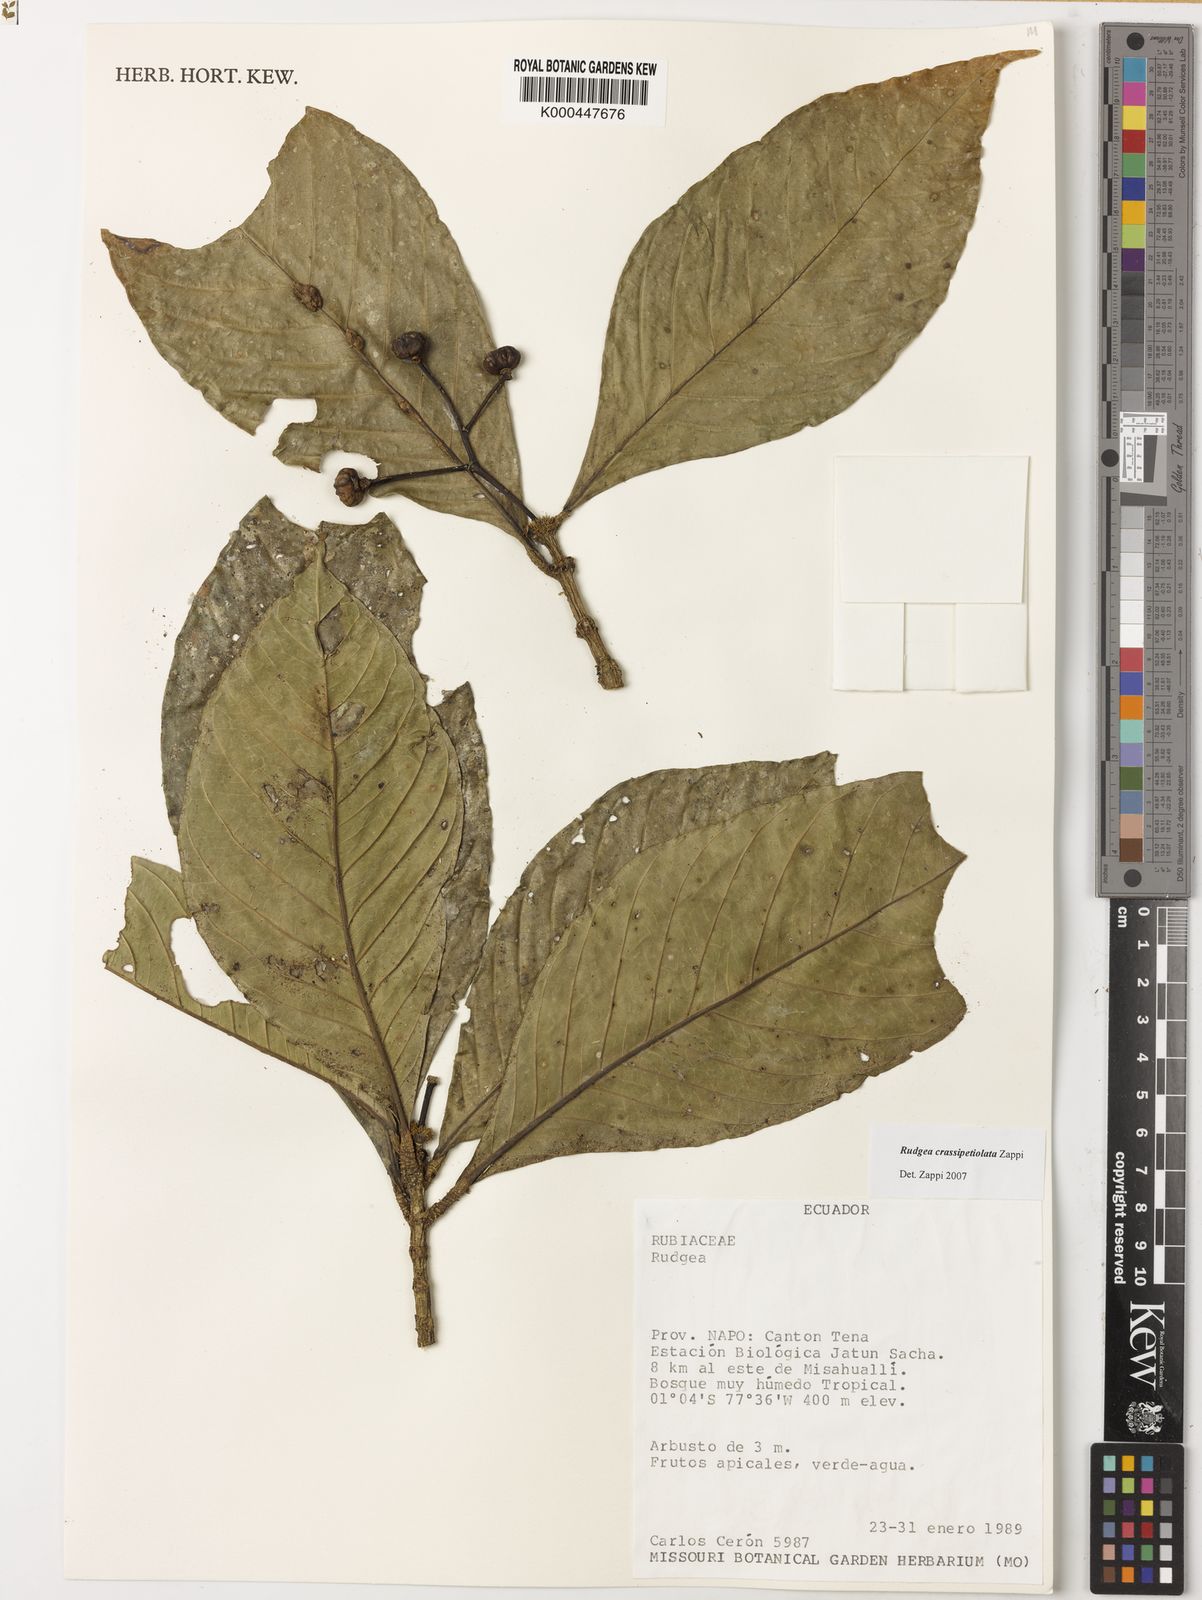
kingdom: Plantae
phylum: Tracheophyta
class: Magnoliopsida
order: Gentianales
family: Rubiaceae
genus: Rudgea
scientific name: Rudgea crassipetiolata
